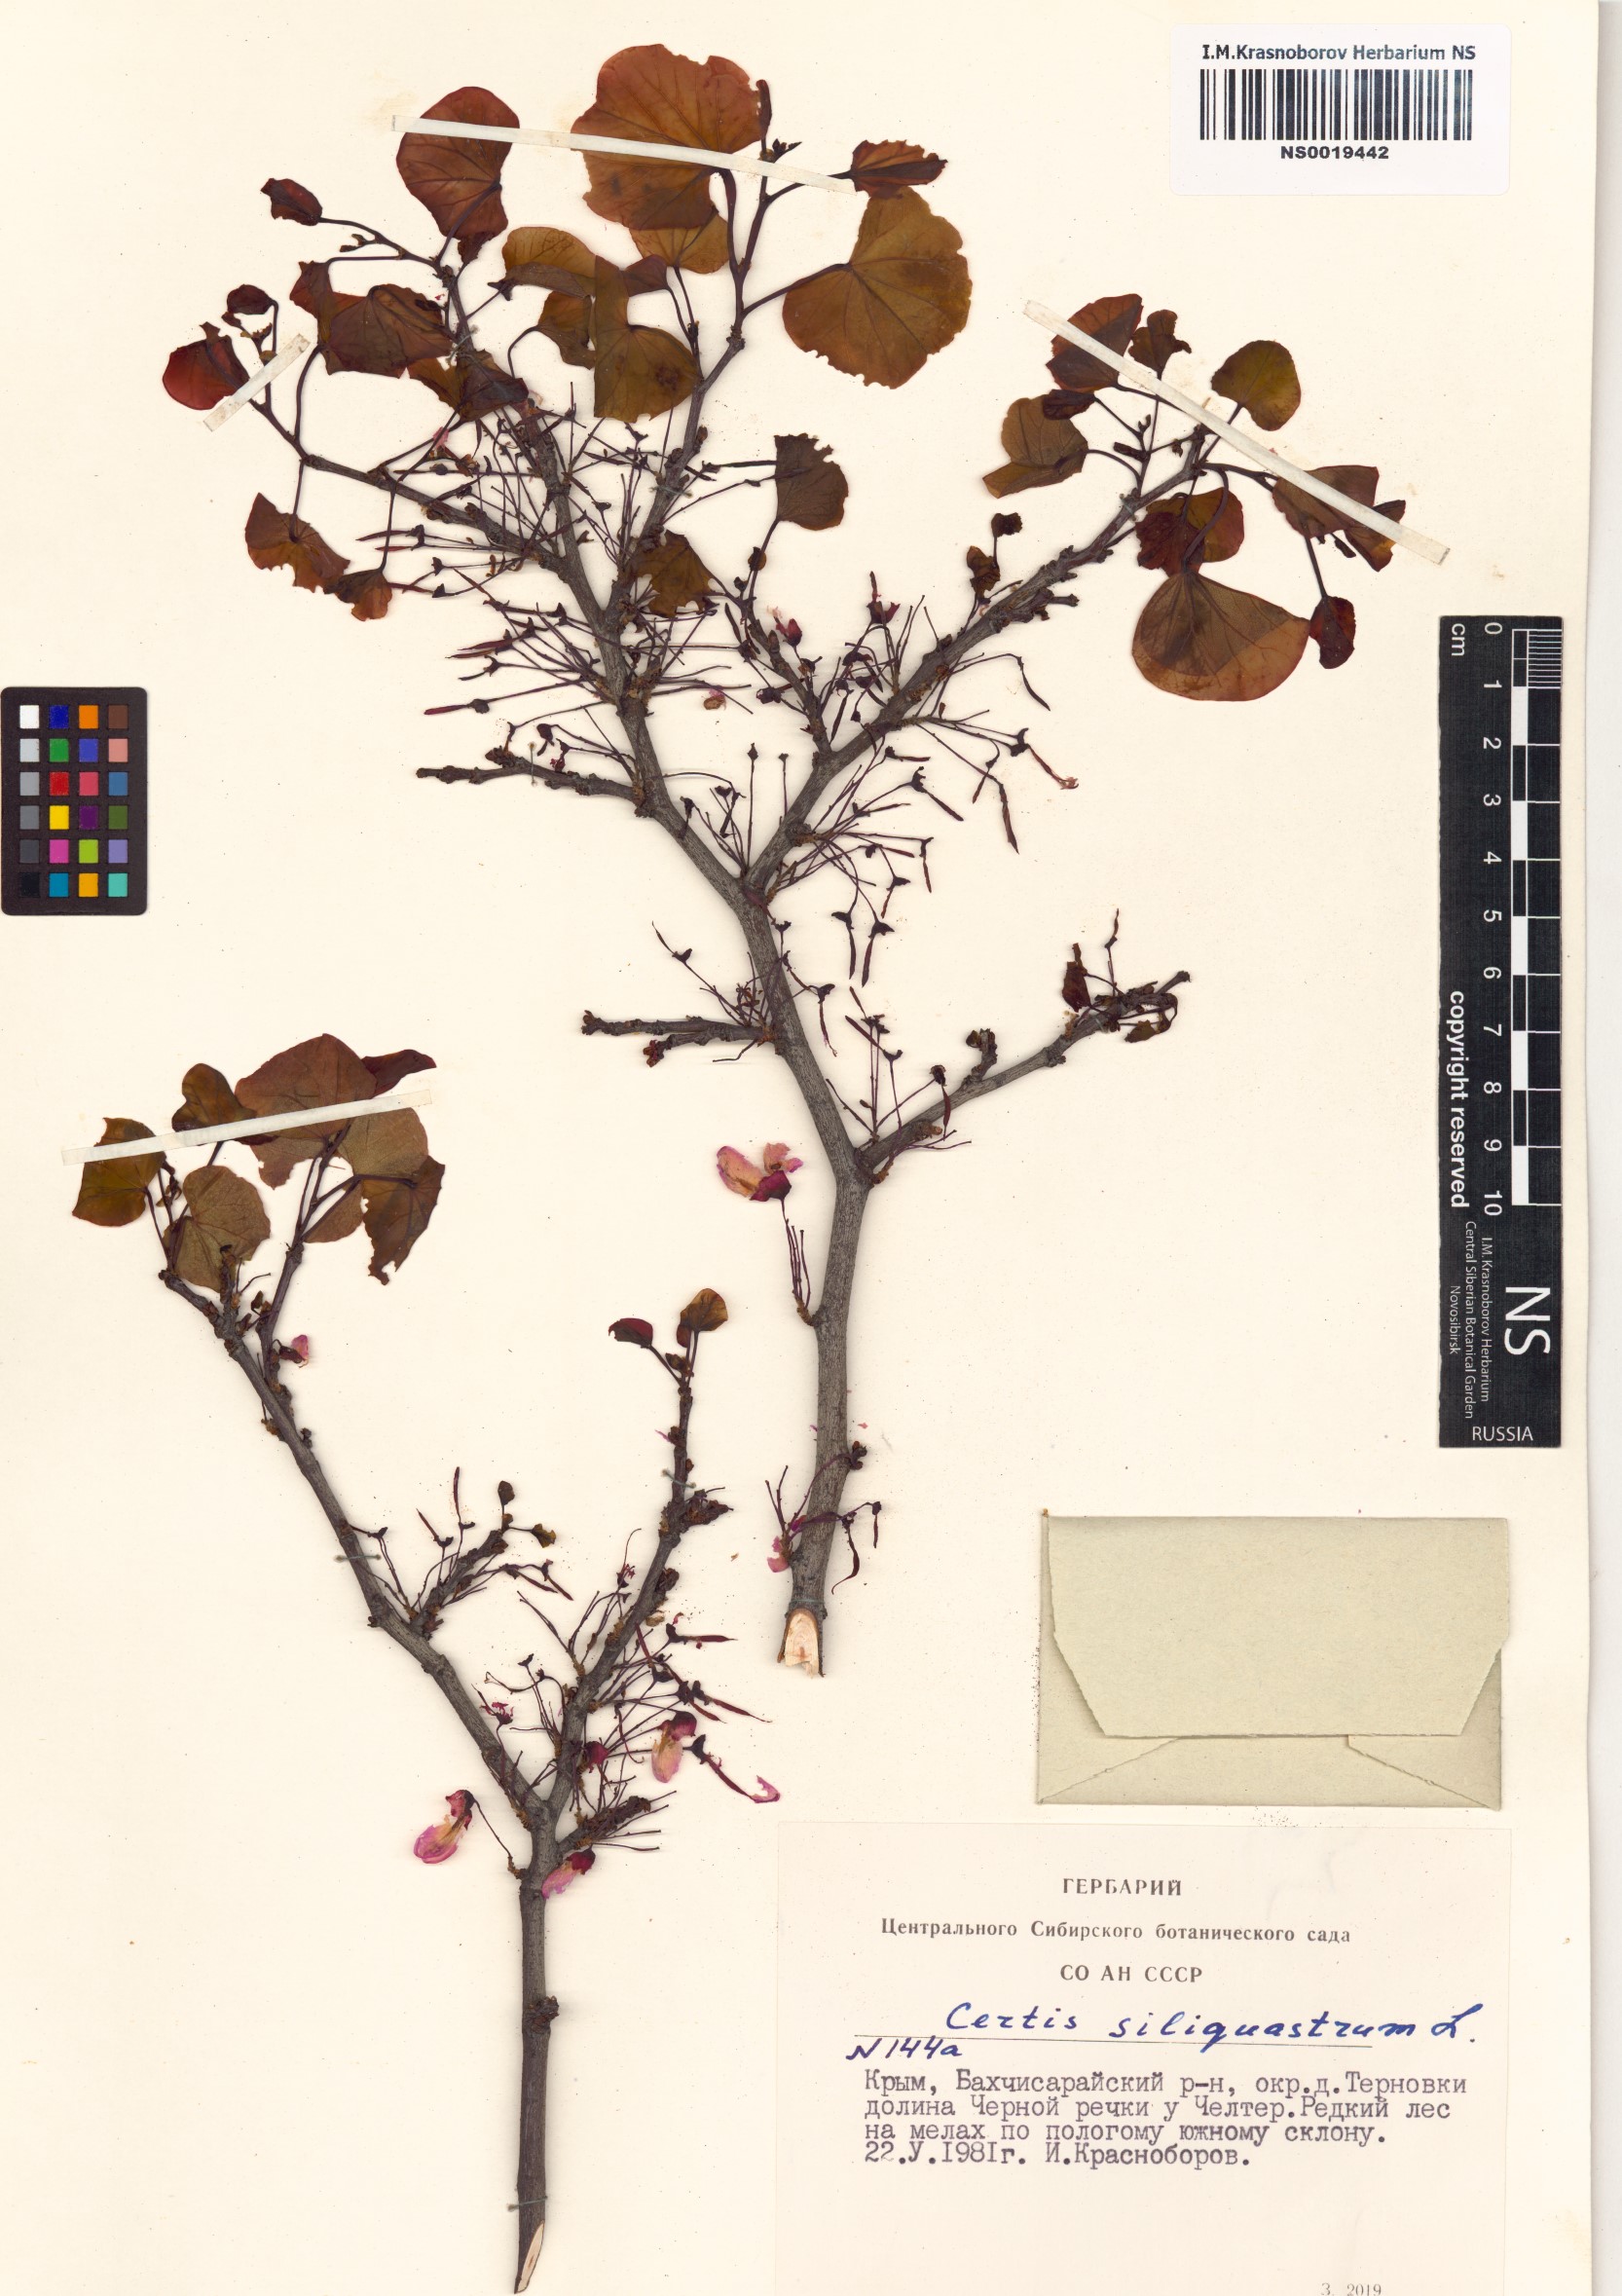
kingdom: Plantae
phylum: Tracheophyta
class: Magnoliopsida
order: Fabales
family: Fabaceae
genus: Cercis
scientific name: Cercis siliquastrum
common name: Judas tree
